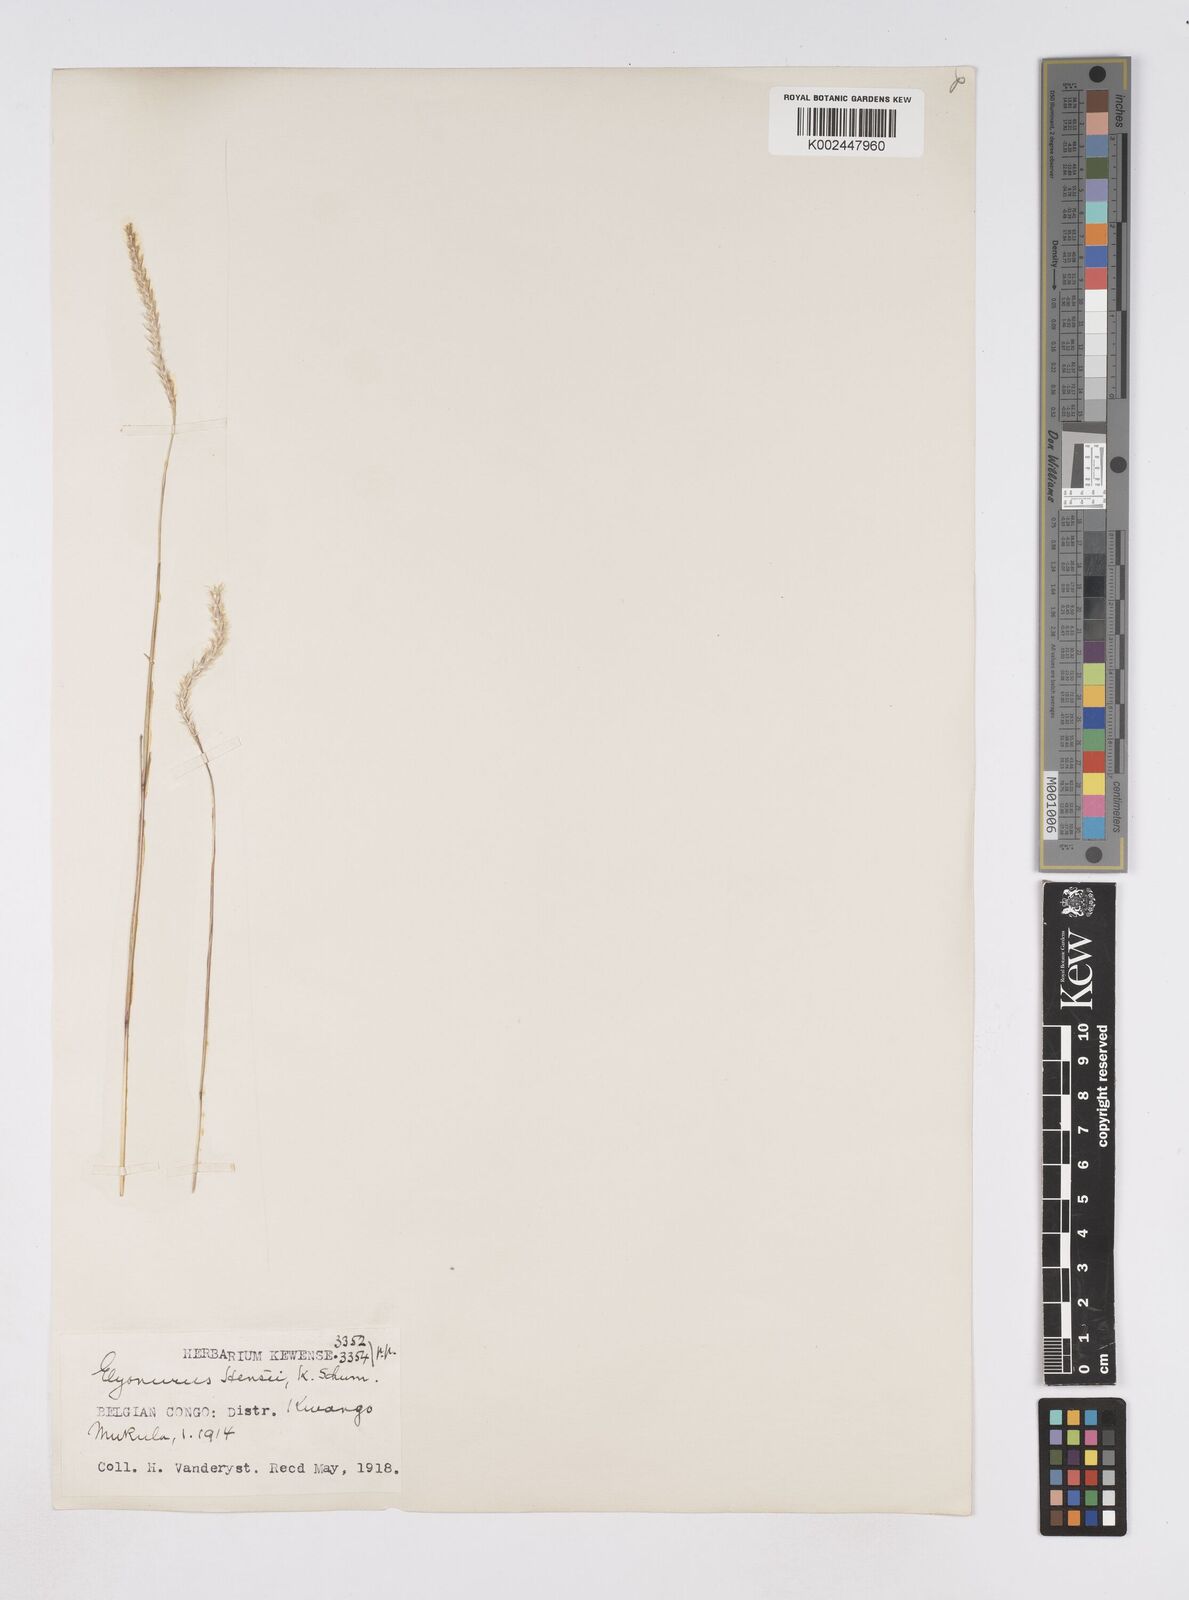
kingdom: Plantae
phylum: Tracheophyta
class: Liliopsida
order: Poales
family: Poaceae
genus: Elionurus
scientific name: Elionurus hensii
